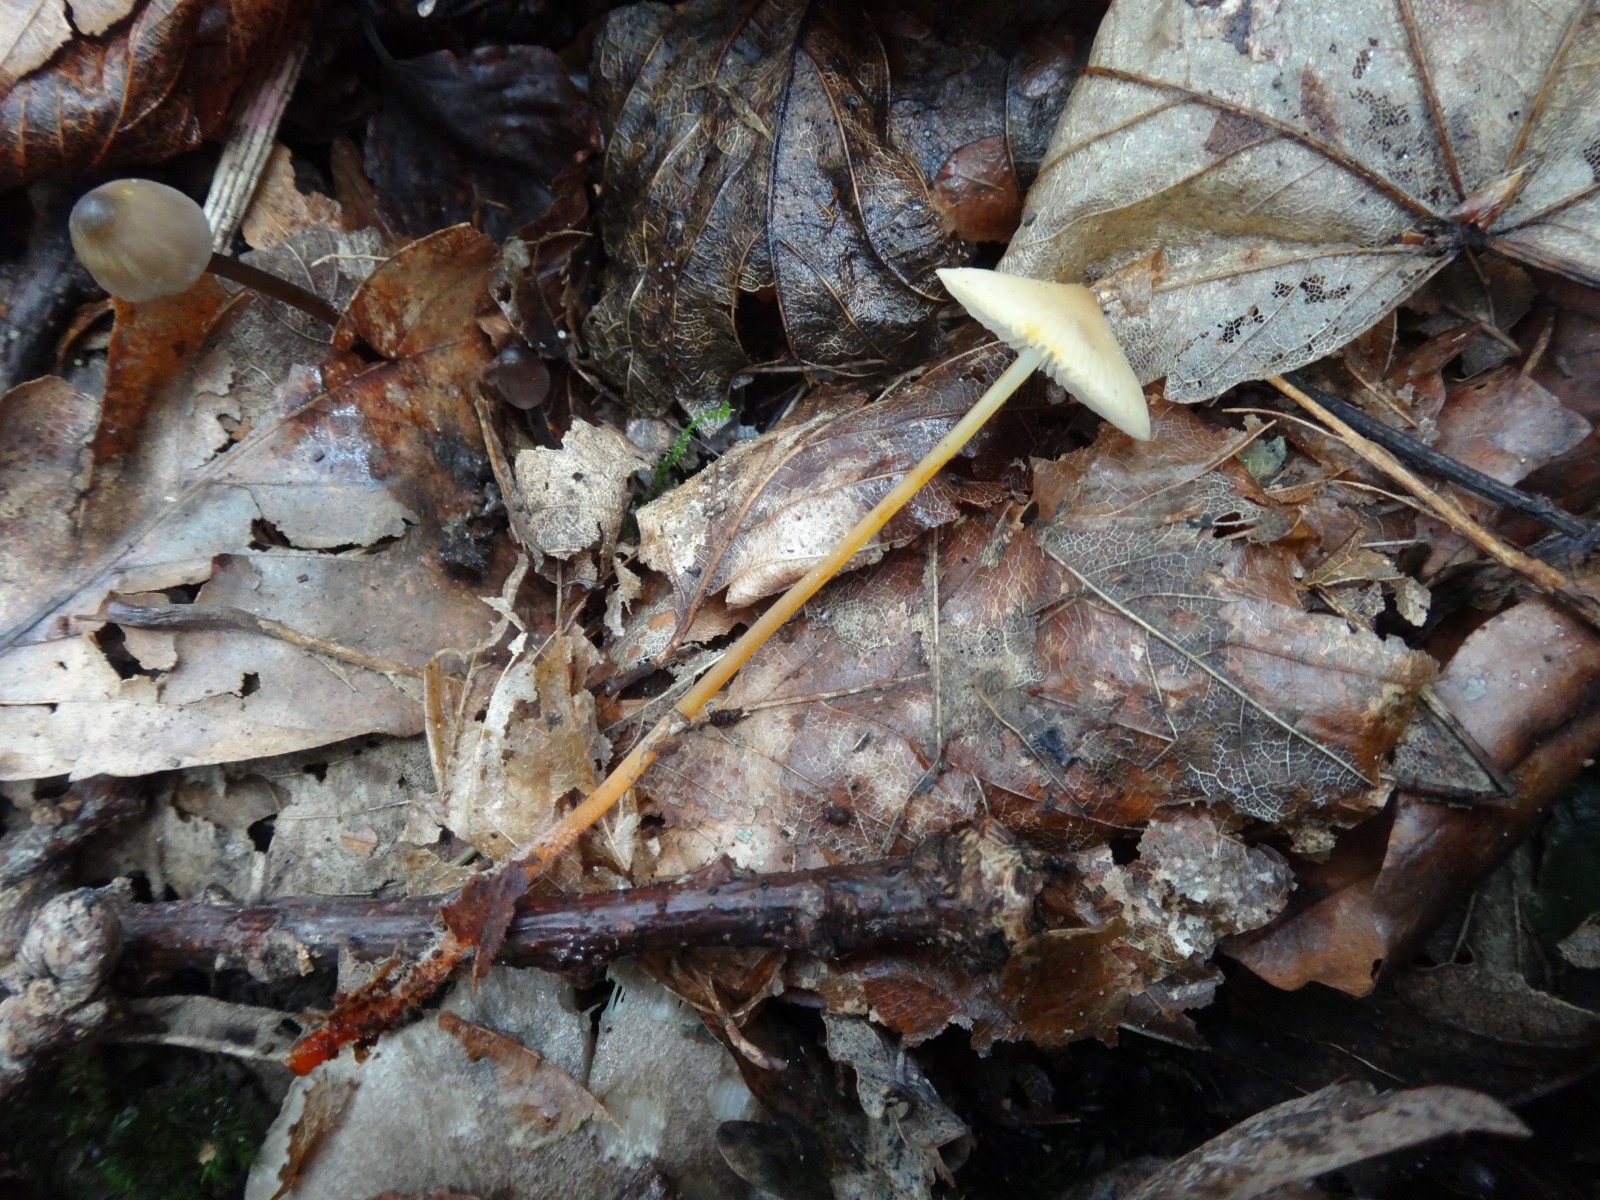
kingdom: Fungi
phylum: Basidiomycota
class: Agaricomycetes
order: Agaricales
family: Mycenaceae
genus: Mycena
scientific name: Mycena crocata
